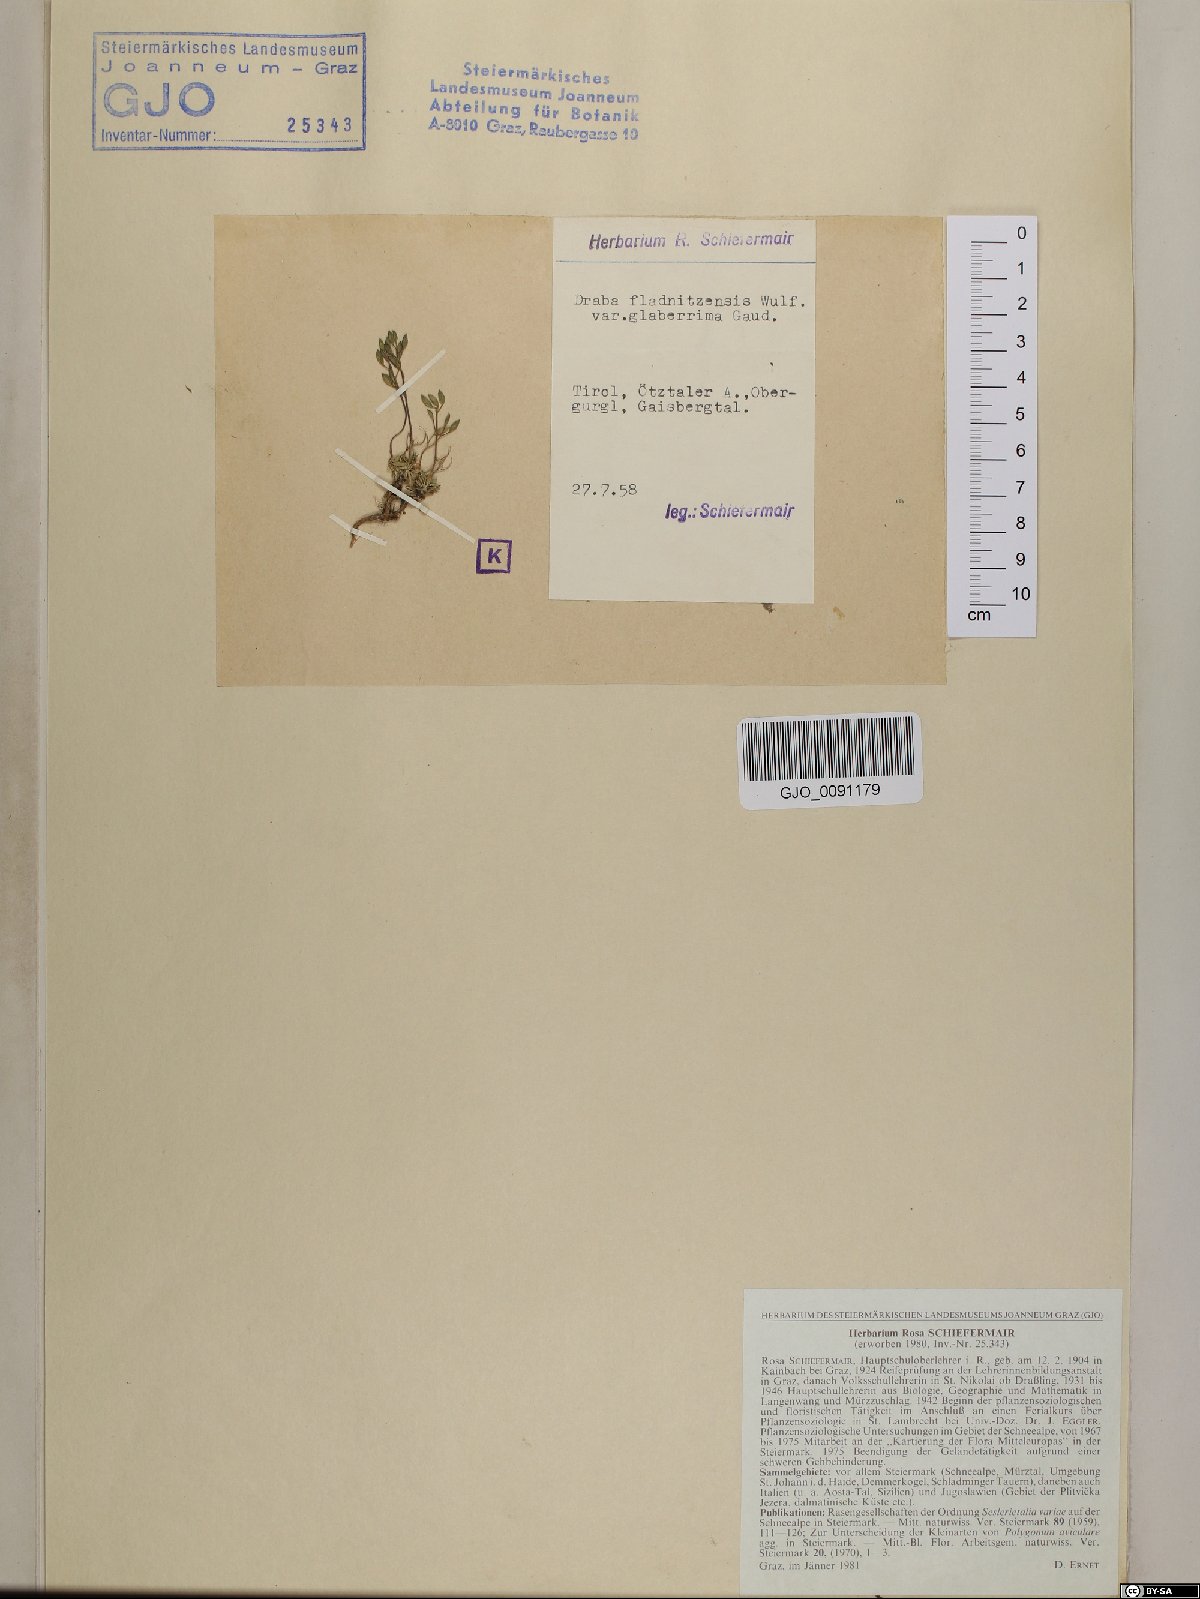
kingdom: Plantae
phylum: Tracheophyta
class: Magnoliopsida
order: Brassicales
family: Brassicaceae
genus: Draba
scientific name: Draba fladnizensis
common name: Austrian draba
